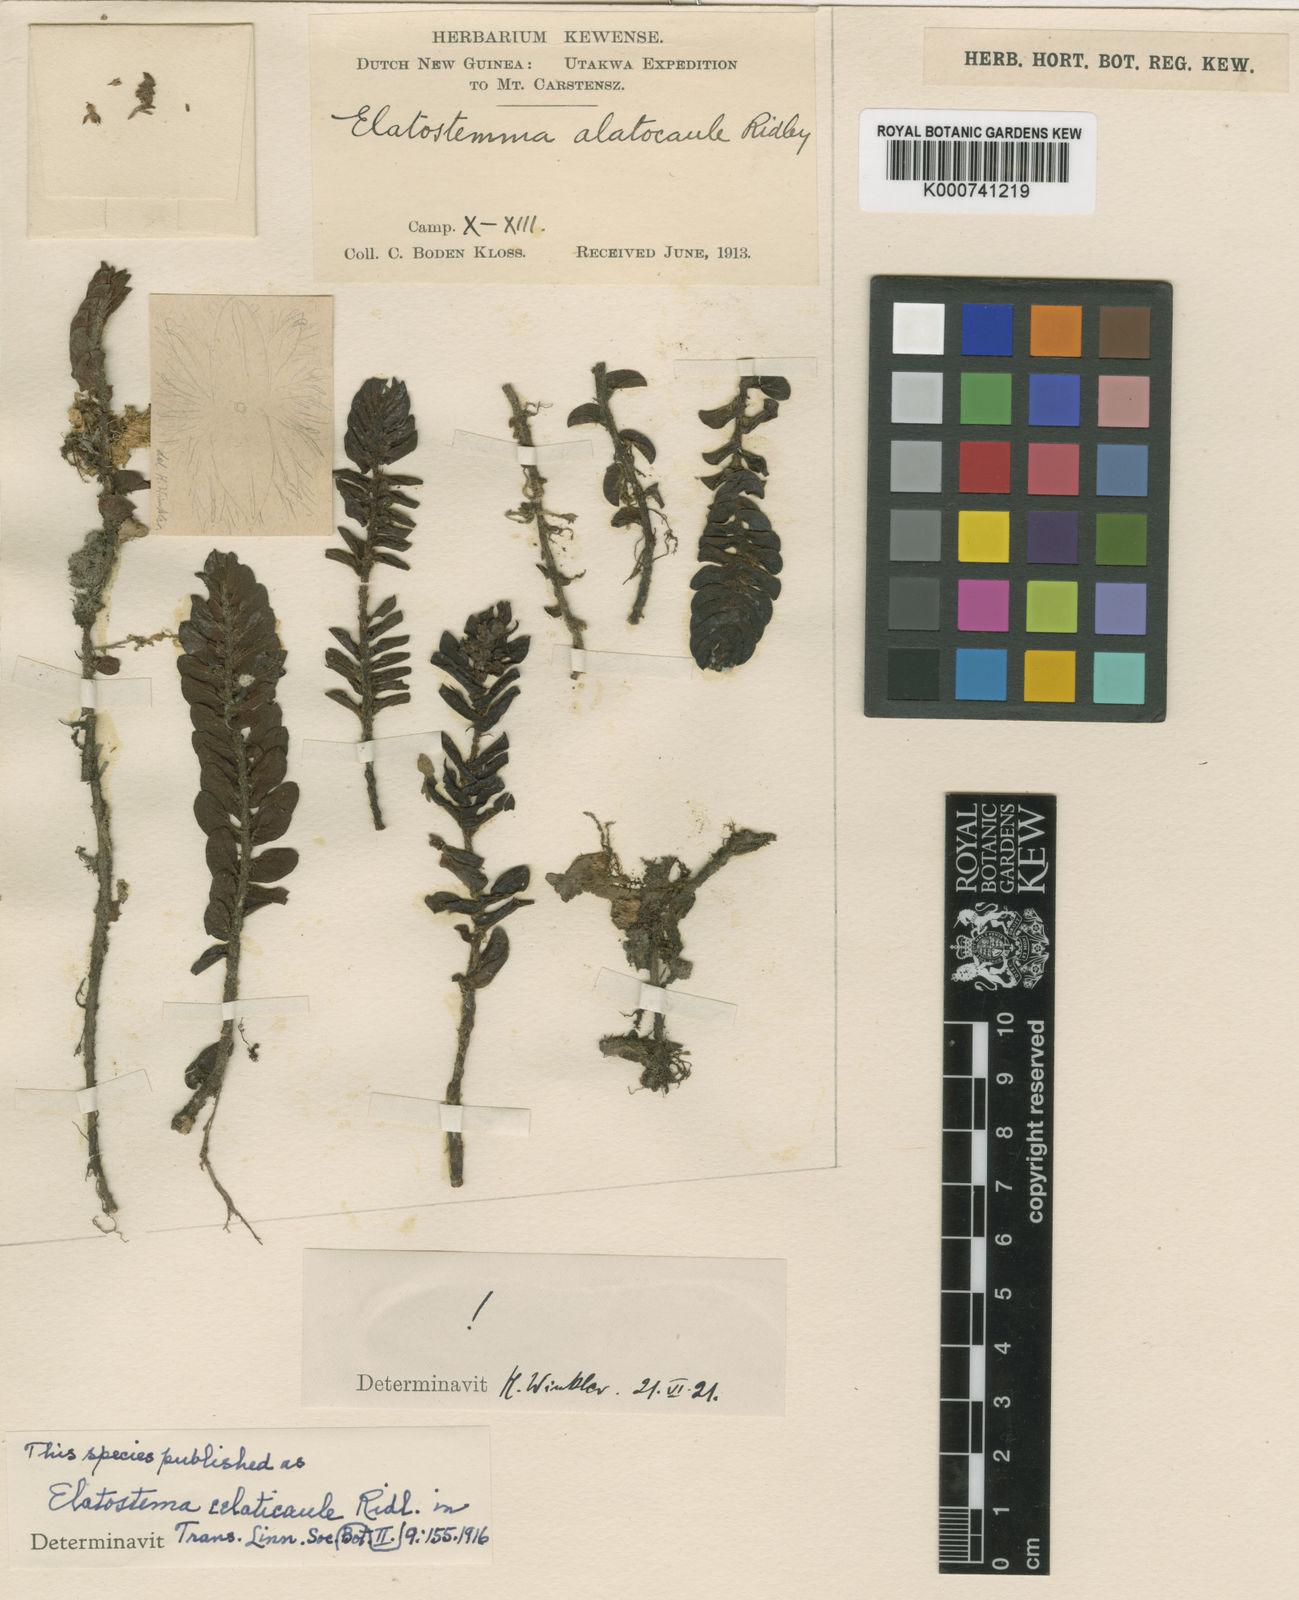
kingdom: Plantae
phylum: Tracheophyta
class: Magnoliopsida
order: Rosales
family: Urticaceae
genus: Elatostema
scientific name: Elatostema celaticaule
